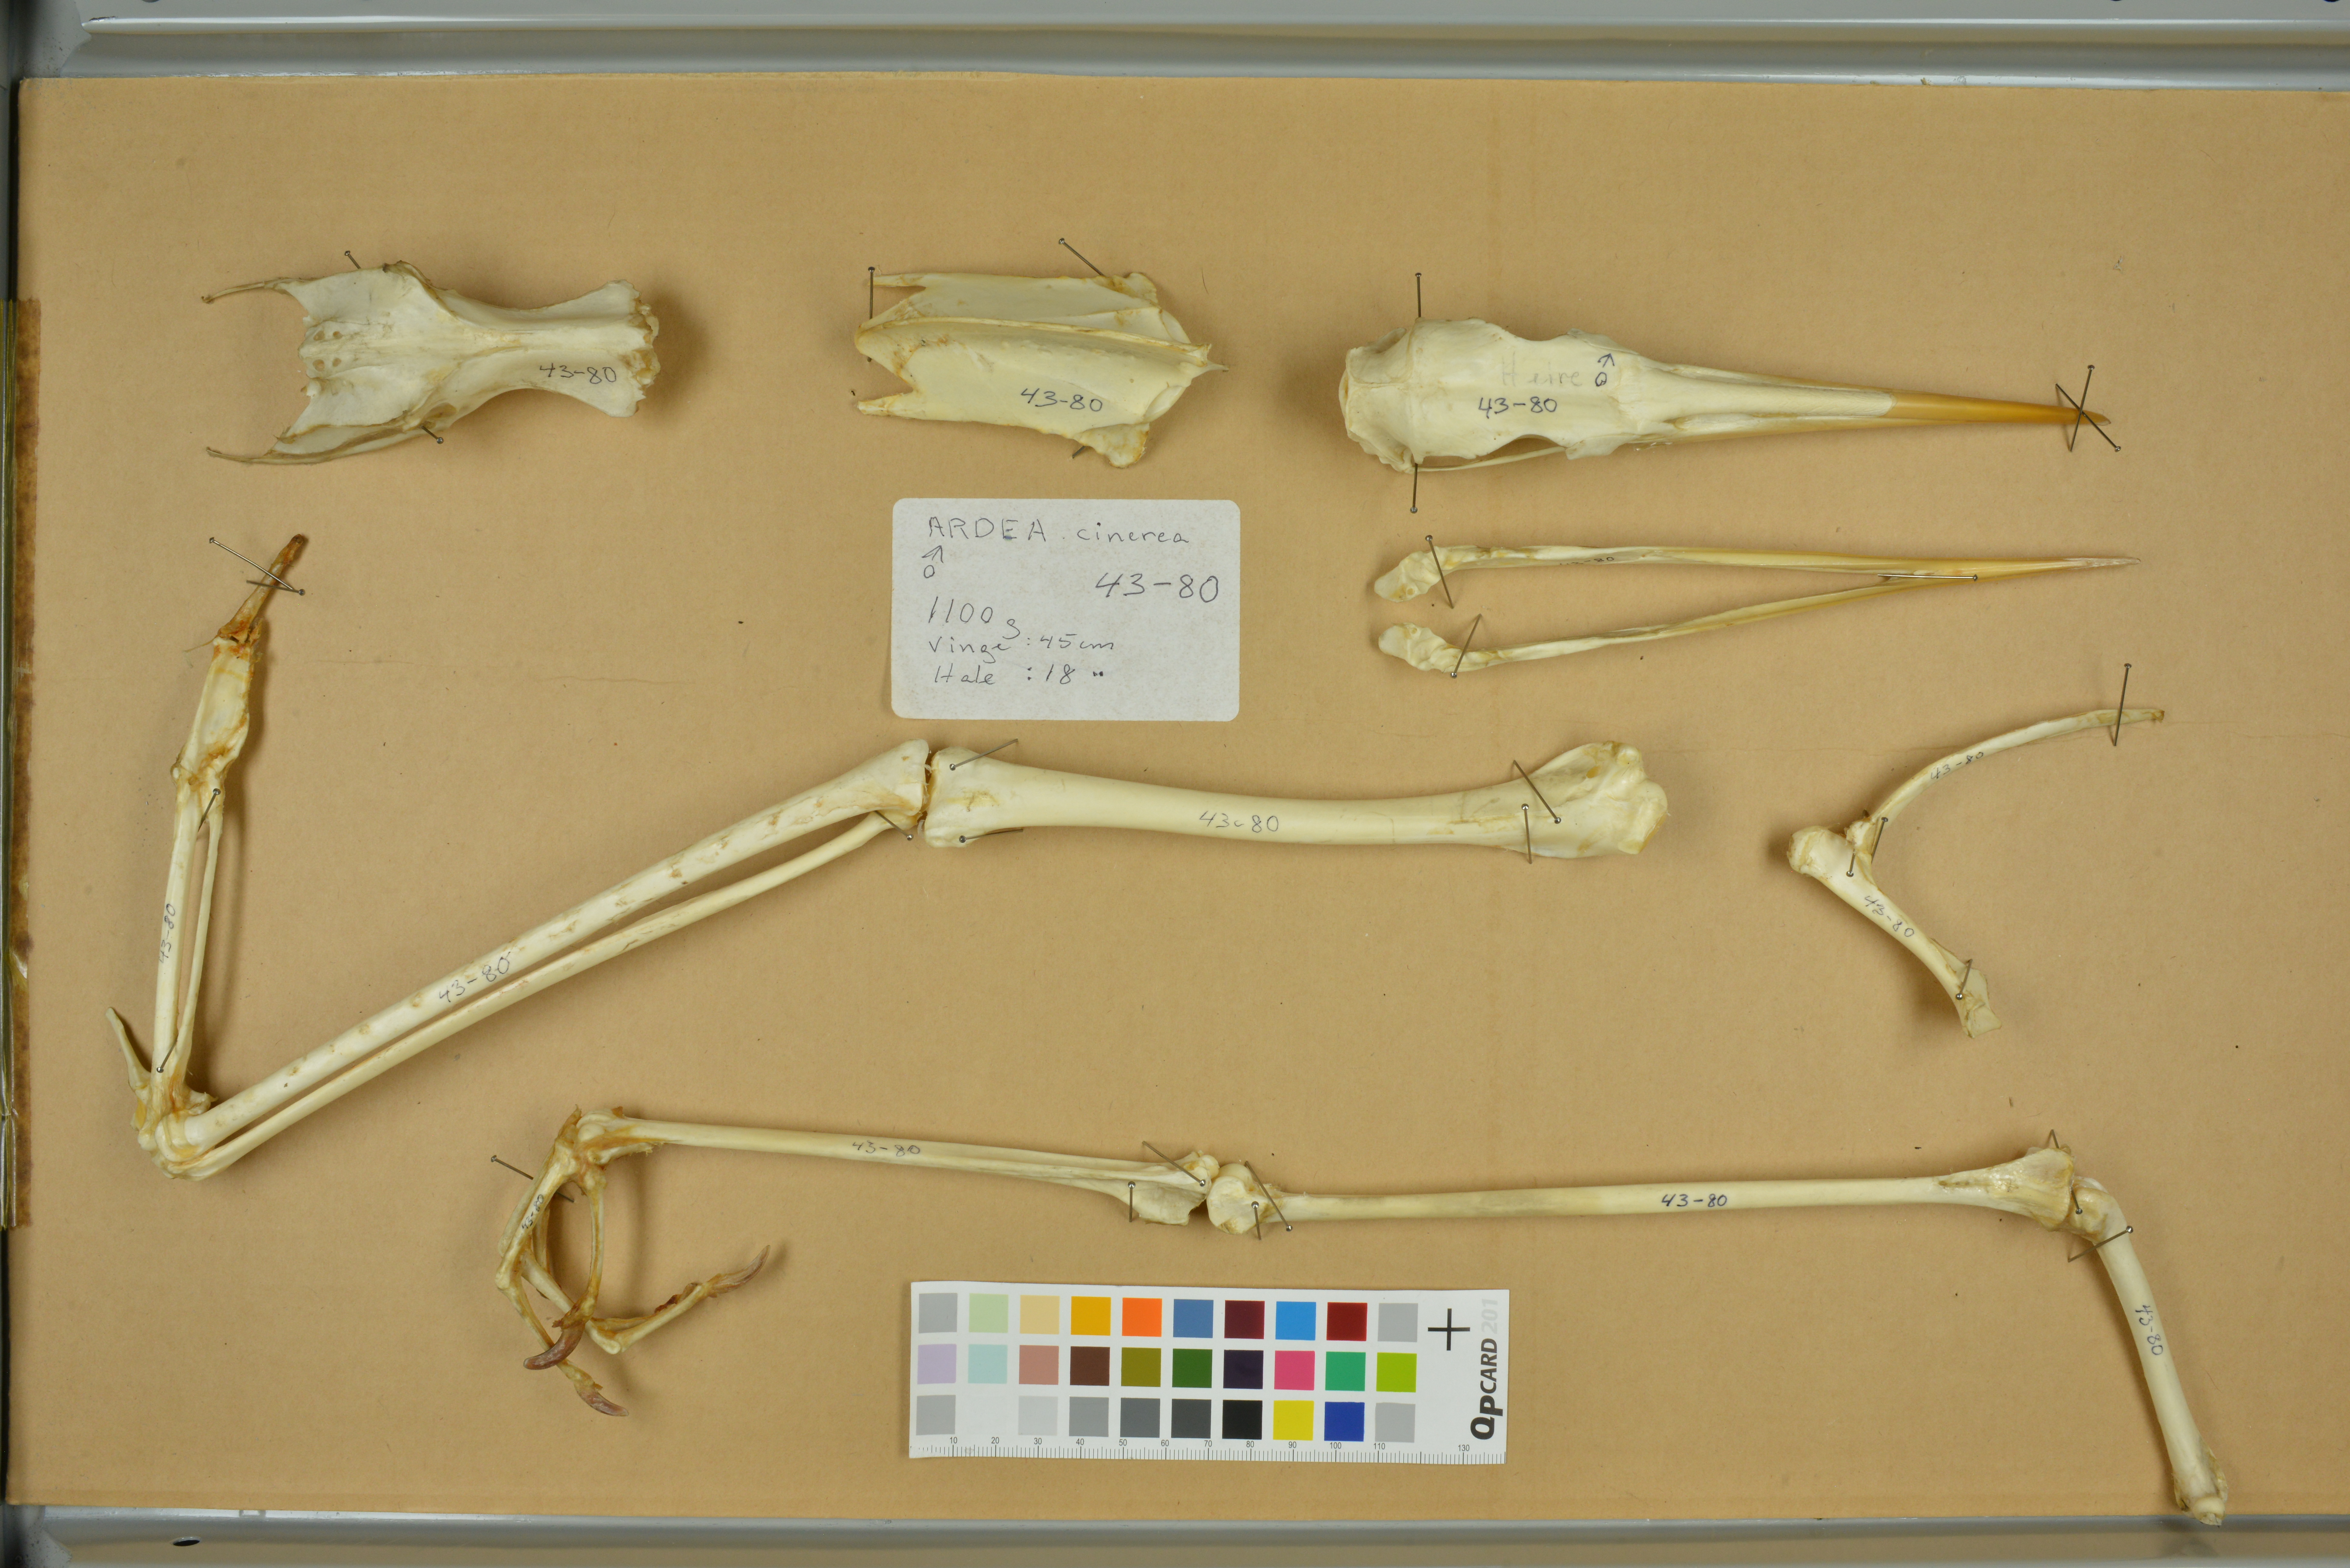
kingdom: Animalia
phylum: Chordata
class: Aves
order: Pelecaniformes
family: Ardeidae
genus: Ardea
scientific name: Ardea cinerea
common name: Grey heron
